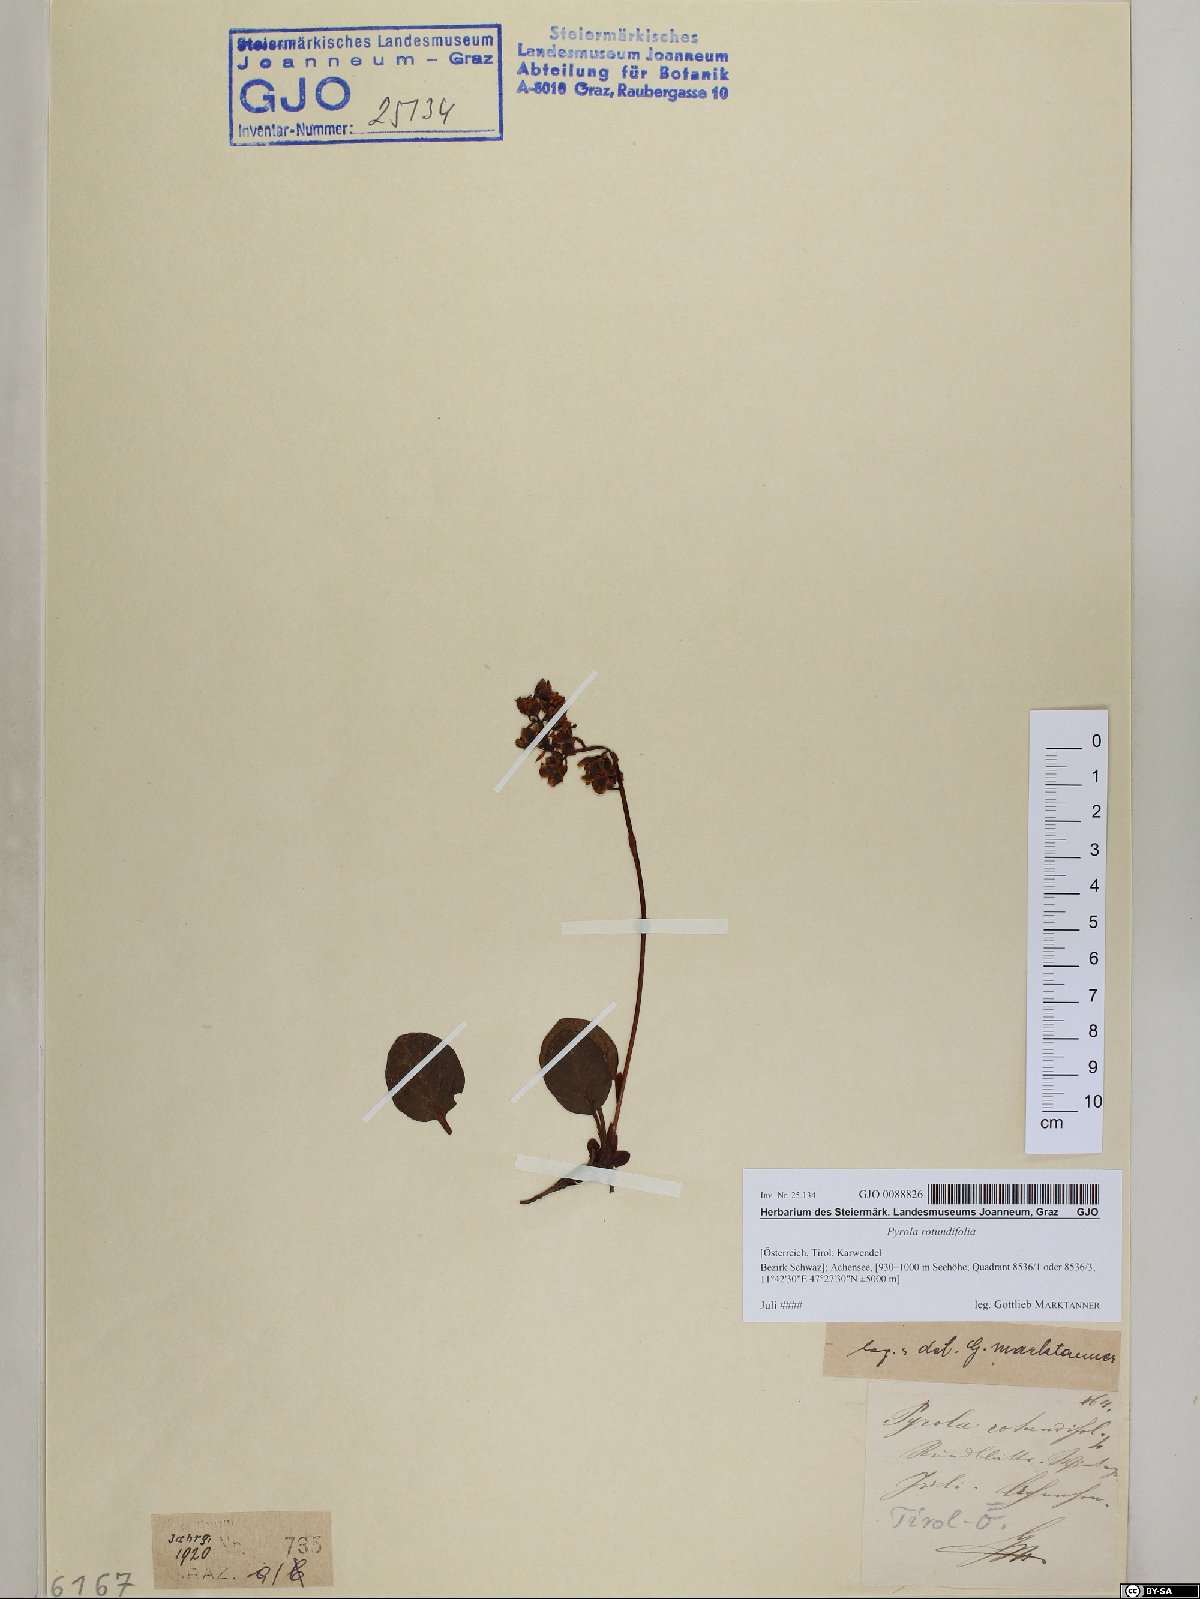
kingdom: Plantae
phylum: Tracheophyta
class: Magnoliopsida
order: Ericales
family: Ericaceae
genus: Pyrola
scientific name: Pyrola rotundifolia
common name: Round-leaved wintergreen
